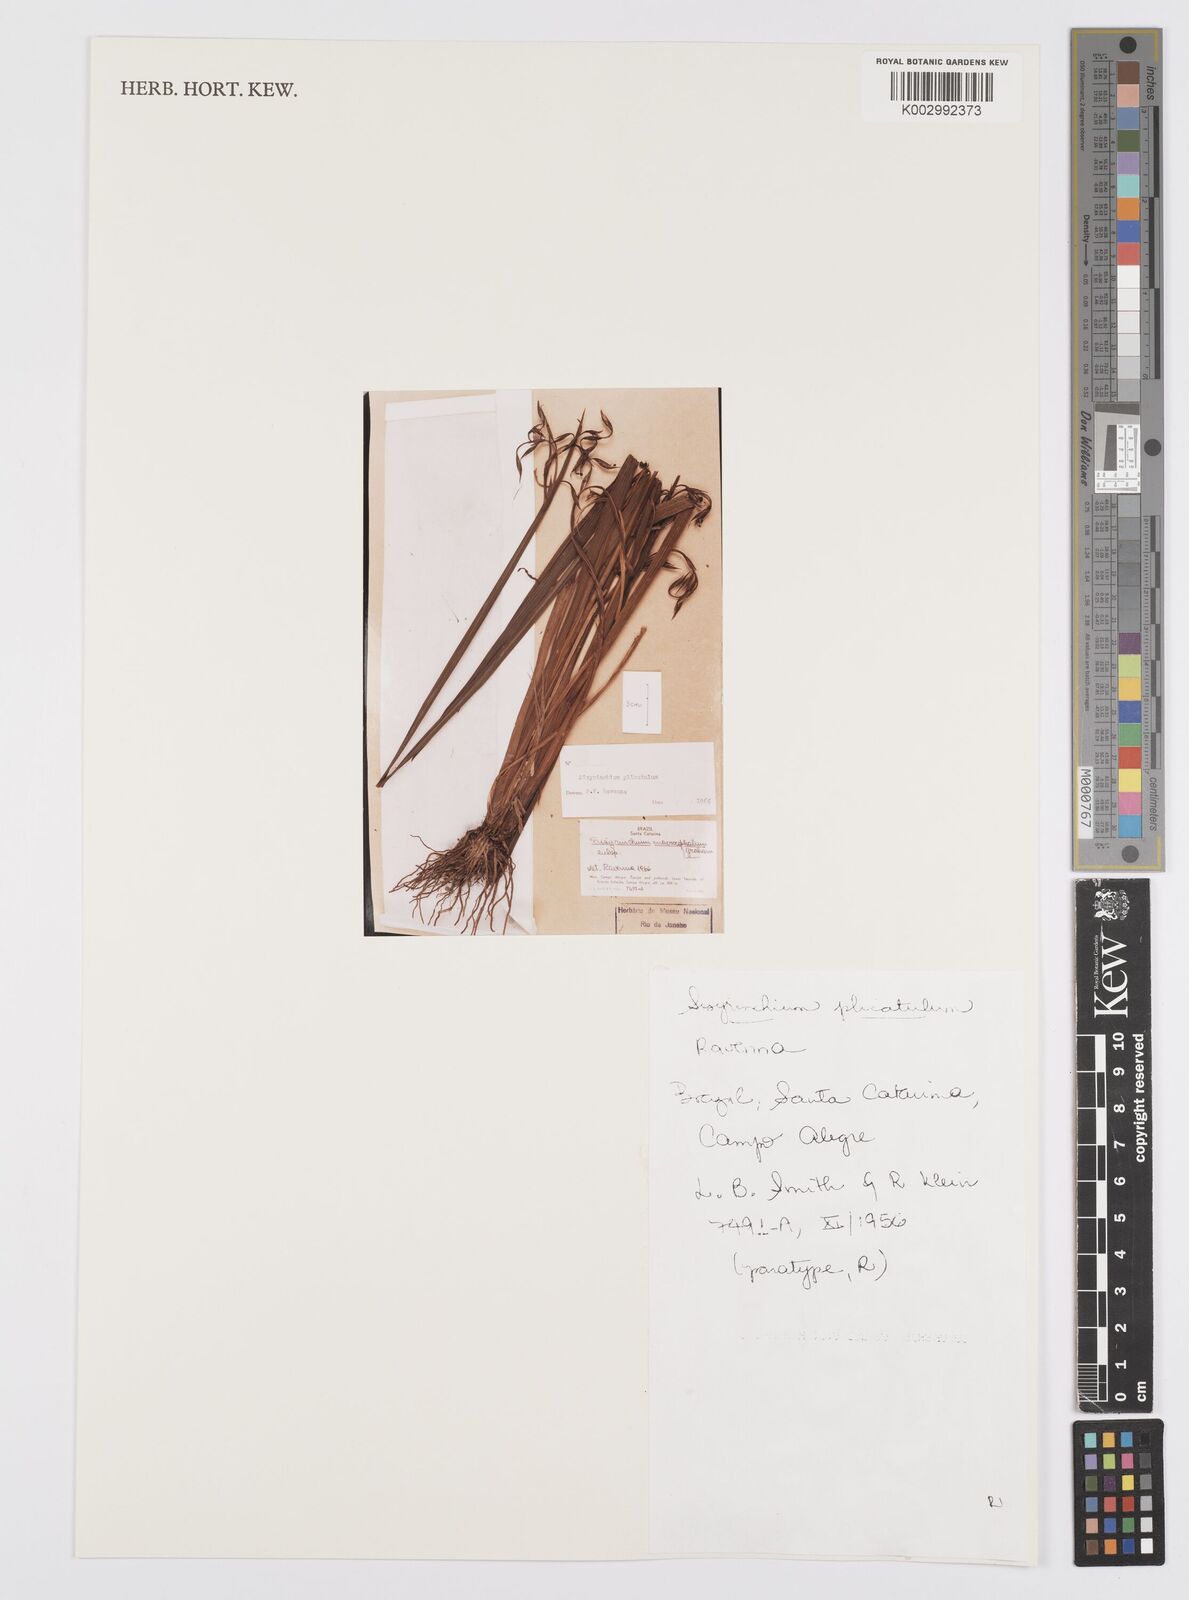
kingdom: Plantae
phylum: Tracheophyta
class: Liliopsida
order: Asparagales
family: Iridaceae
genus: Sisyrinchium
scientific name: Sisyrinchium plicatulum
